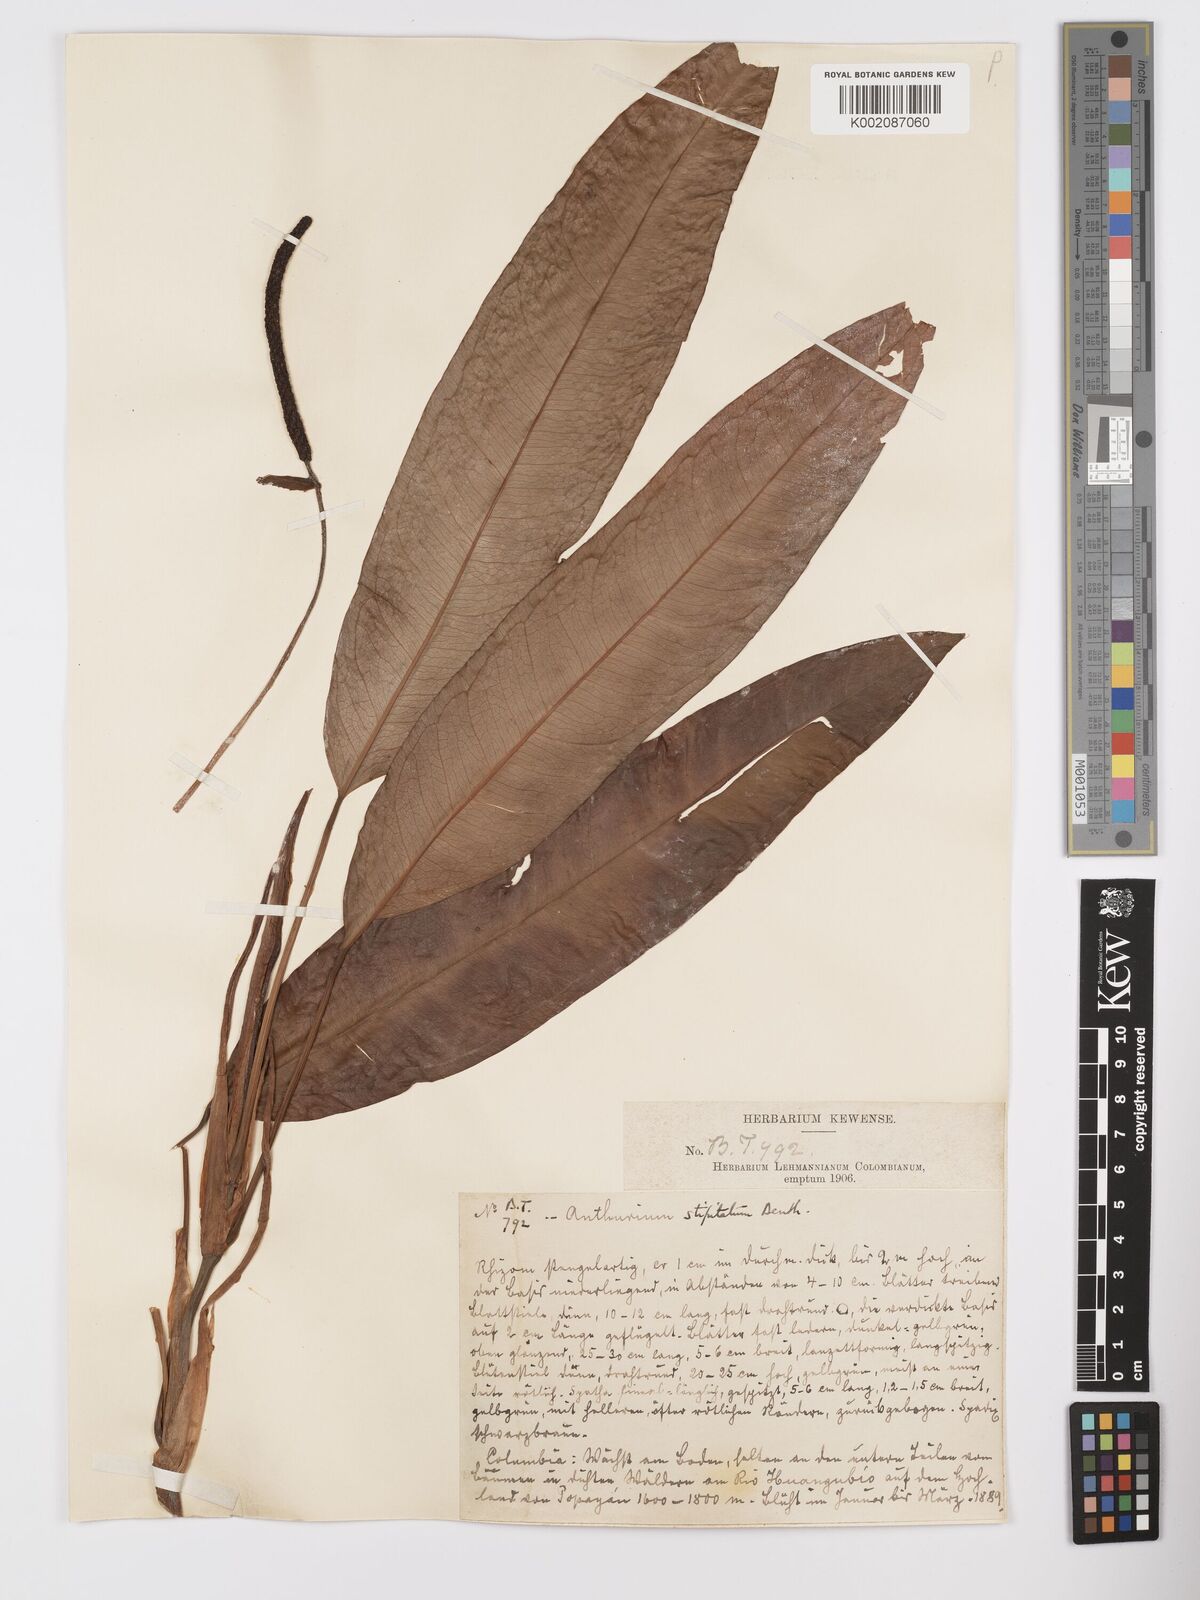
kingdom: Plantae
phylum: Tracheophyta
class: Liliopsida
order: Alismatales
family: Araceae
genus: Anthurium
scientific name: Anthurium stipitatum
